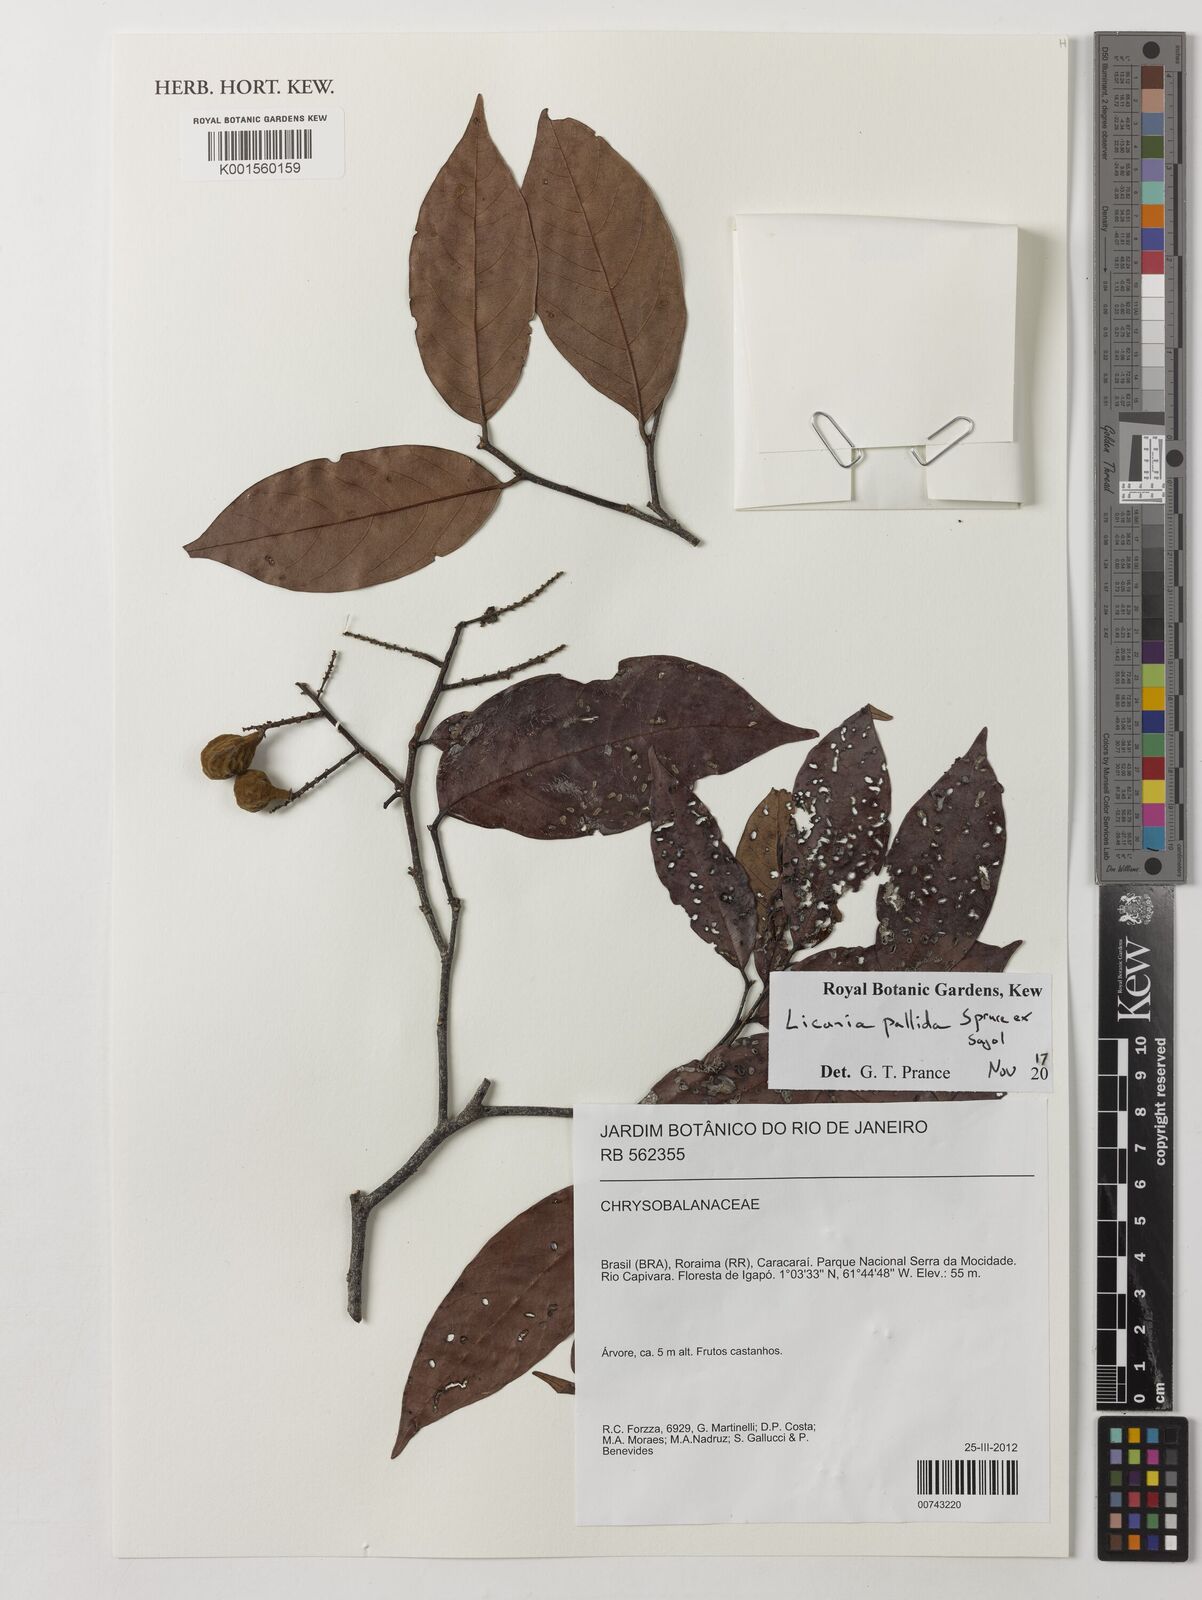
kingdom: Plantae
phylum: Tracheophyta
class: Magnoliopsida
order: Malpighiales
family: Chrysobalanaceae
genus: Licania
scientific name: Licania pallida
